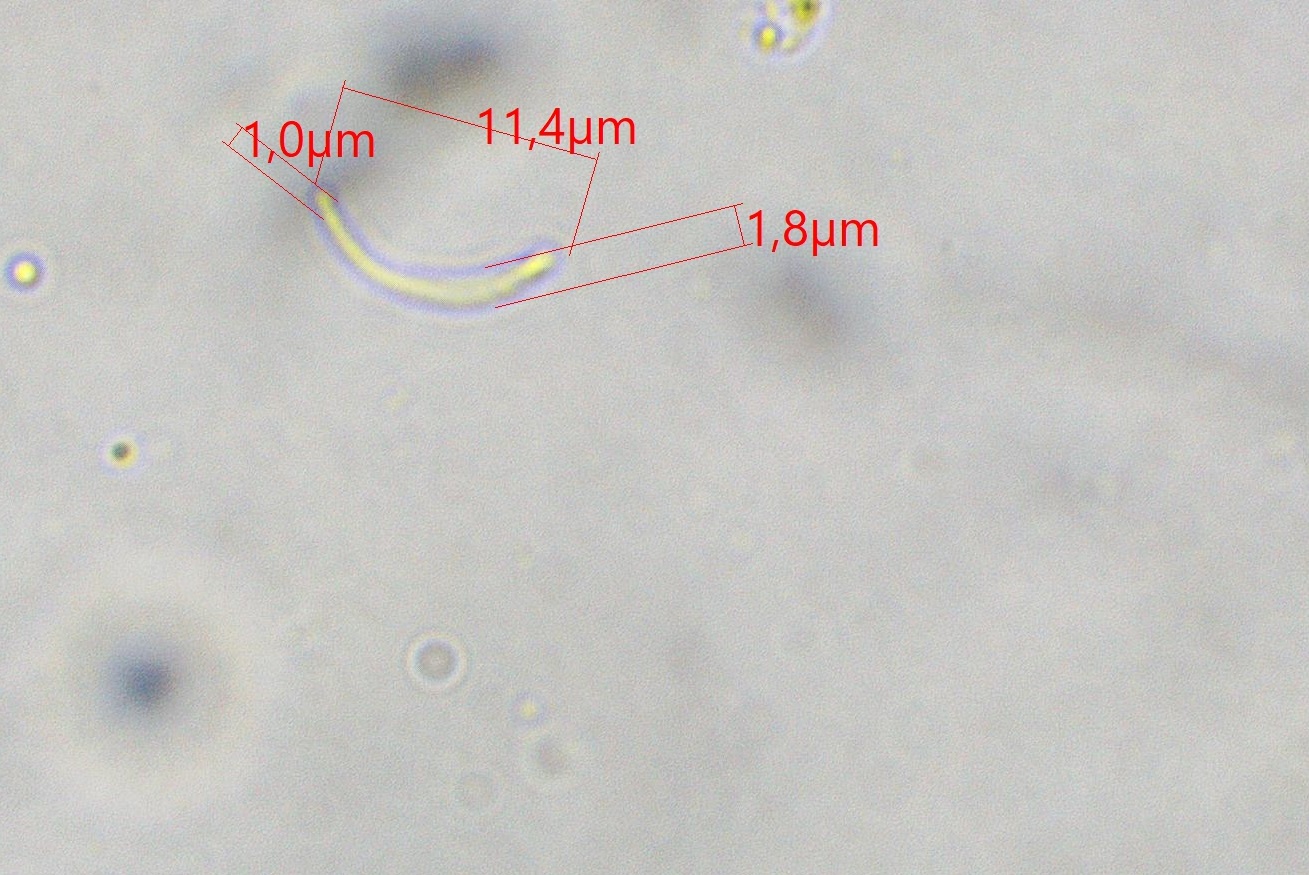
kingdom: Fungi
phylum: Ascomycota
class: Orbiliomycetes
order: Orbiliales
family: Orbiliaceae
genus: Orbilia
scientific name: Orbilia auricolor
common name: gylden voksskive
